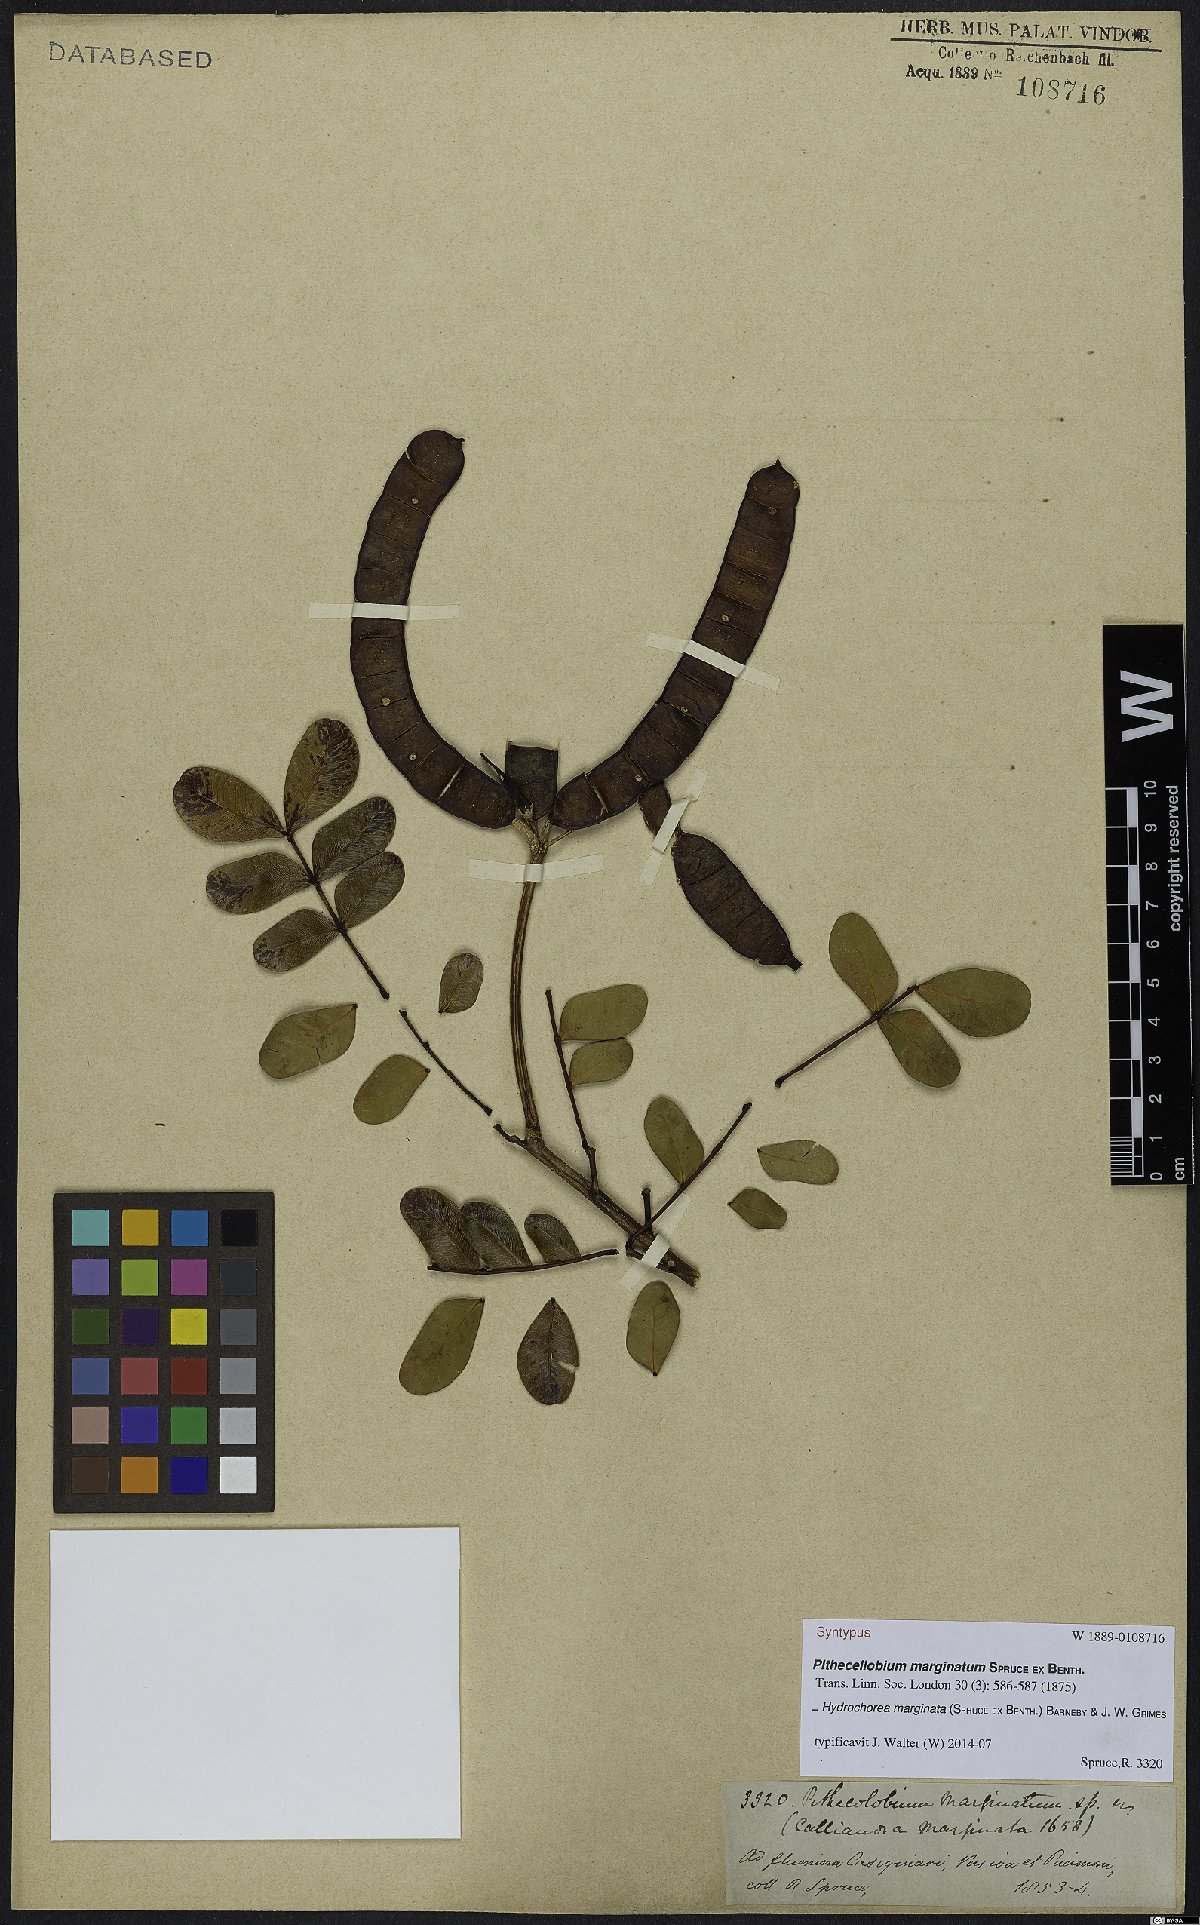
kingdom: Plantae
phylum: Tracheophyta
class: Magnoliopsida
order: Fabales
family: Fabaceae
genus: Hydrochorea
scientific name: Hydrochorea marginata
